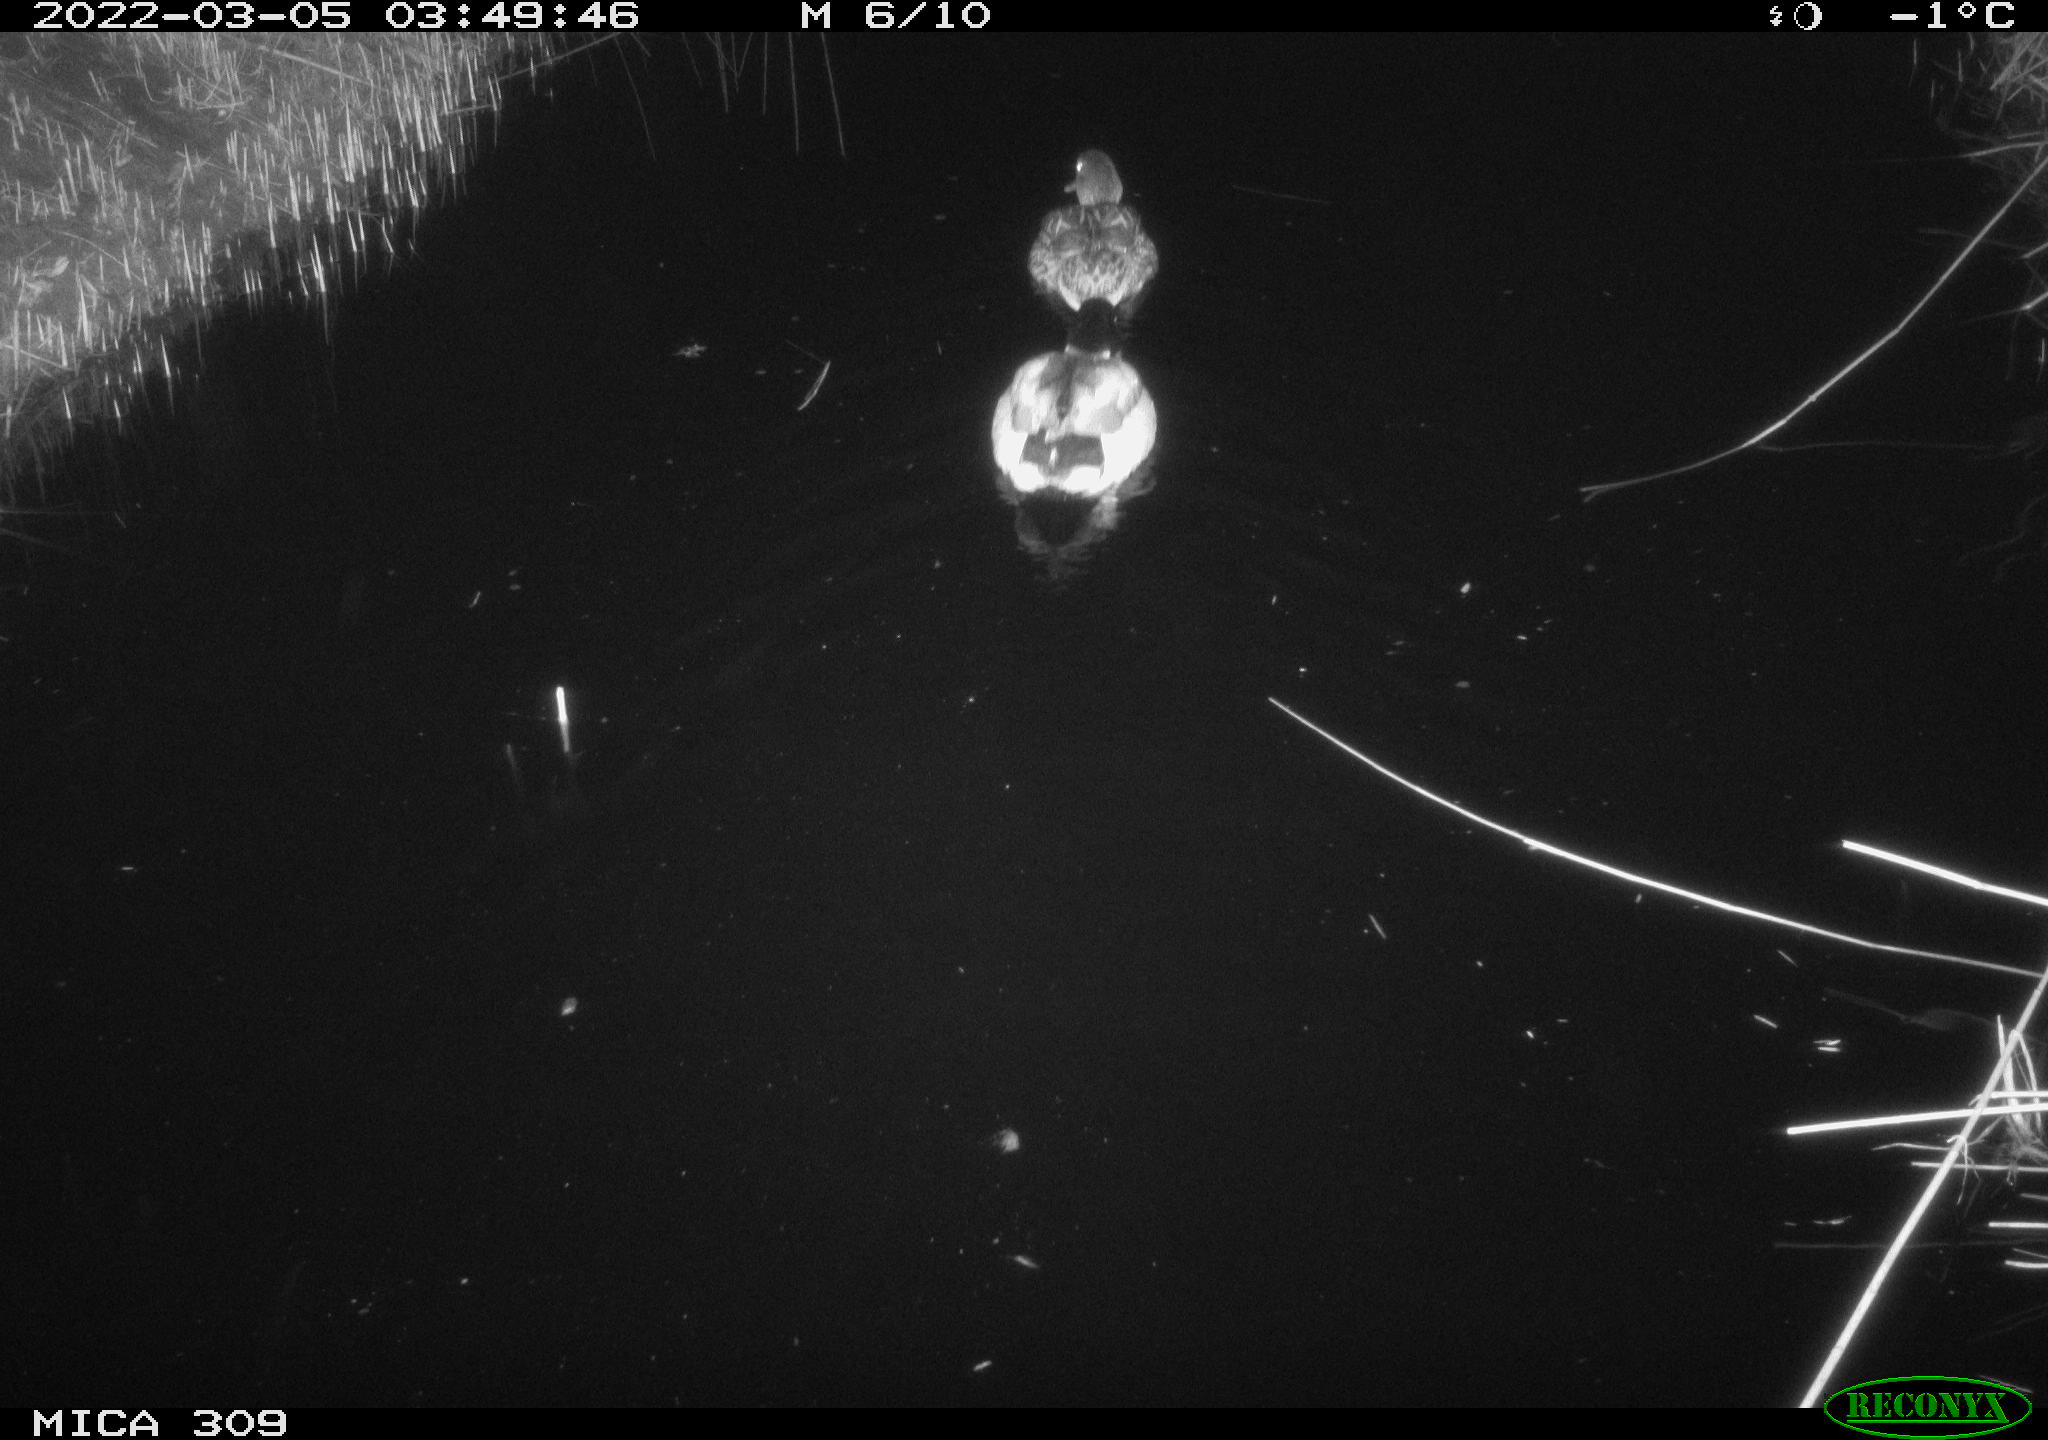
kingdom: Animalia
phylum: Chordata
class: Aves
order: Anseriformes
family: Anatidae
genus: Anas
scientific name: Anas platyrhynchos
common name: Mallard
